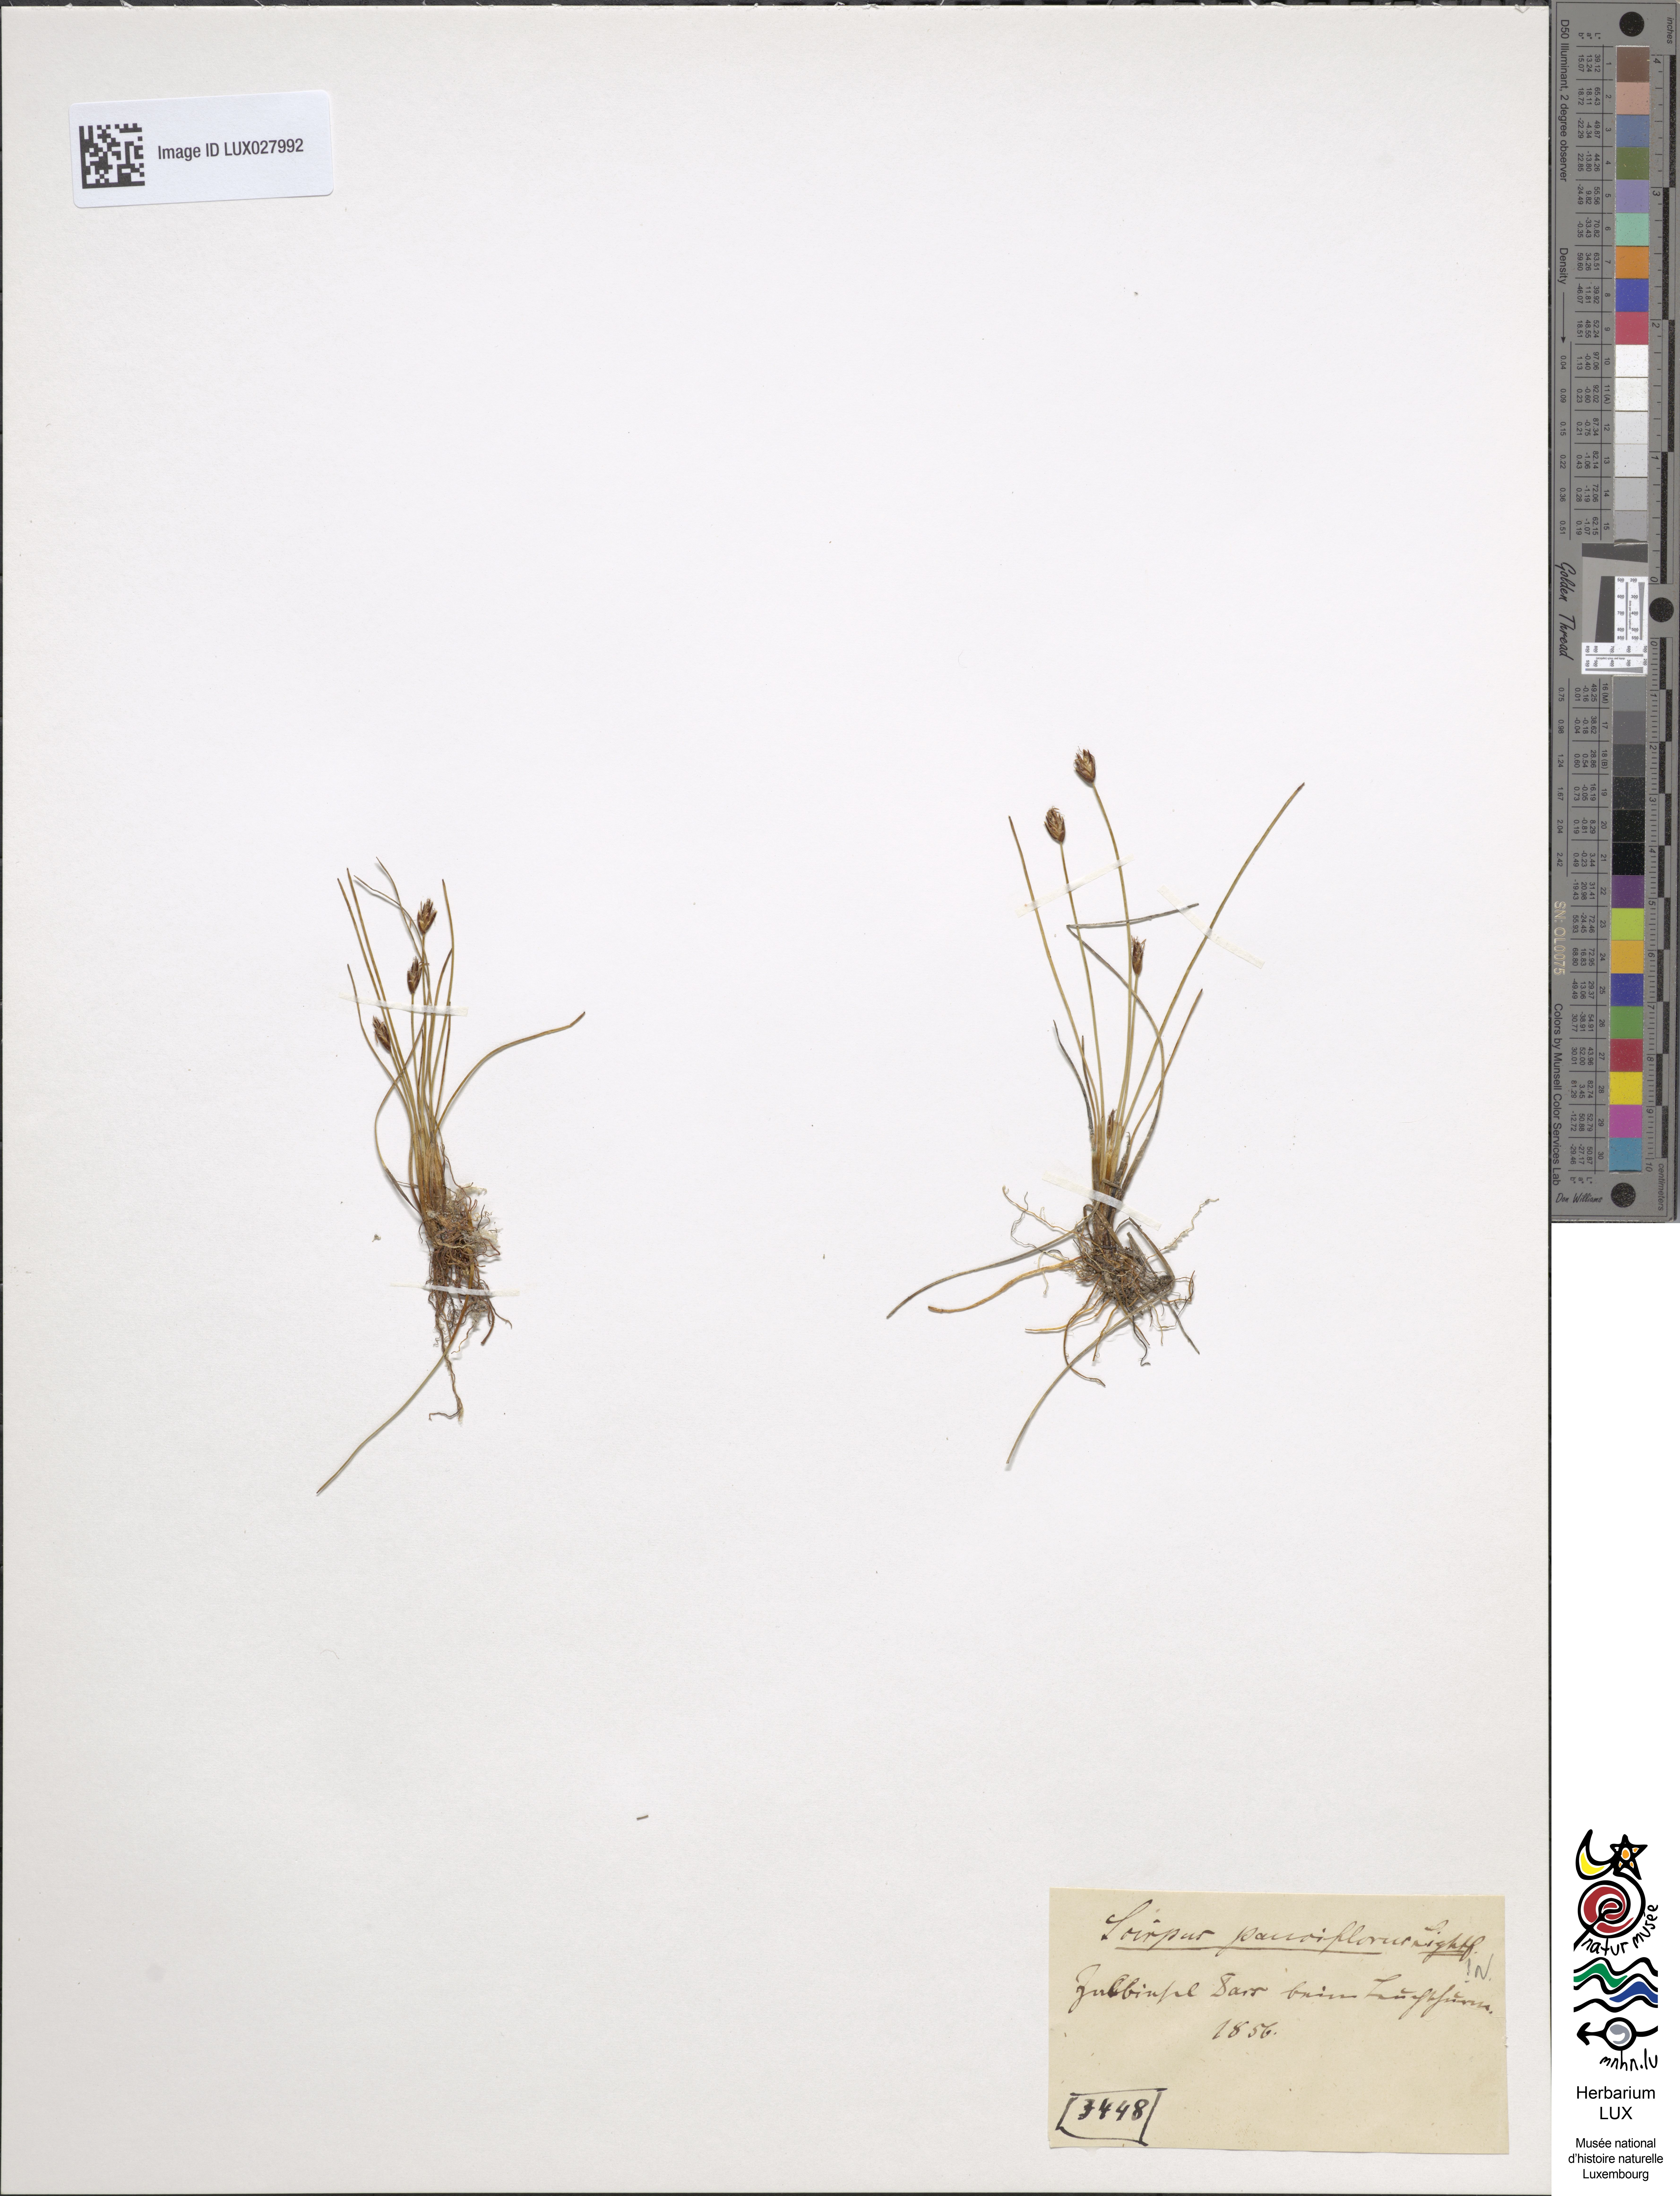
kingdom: Plantae
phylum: Tracheophyta
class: Liliopsida
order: Poales
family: Cyperaceae
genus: Eleocharis
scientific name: Eleocharis quinqueflora
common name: Few-flowered spike-rush
